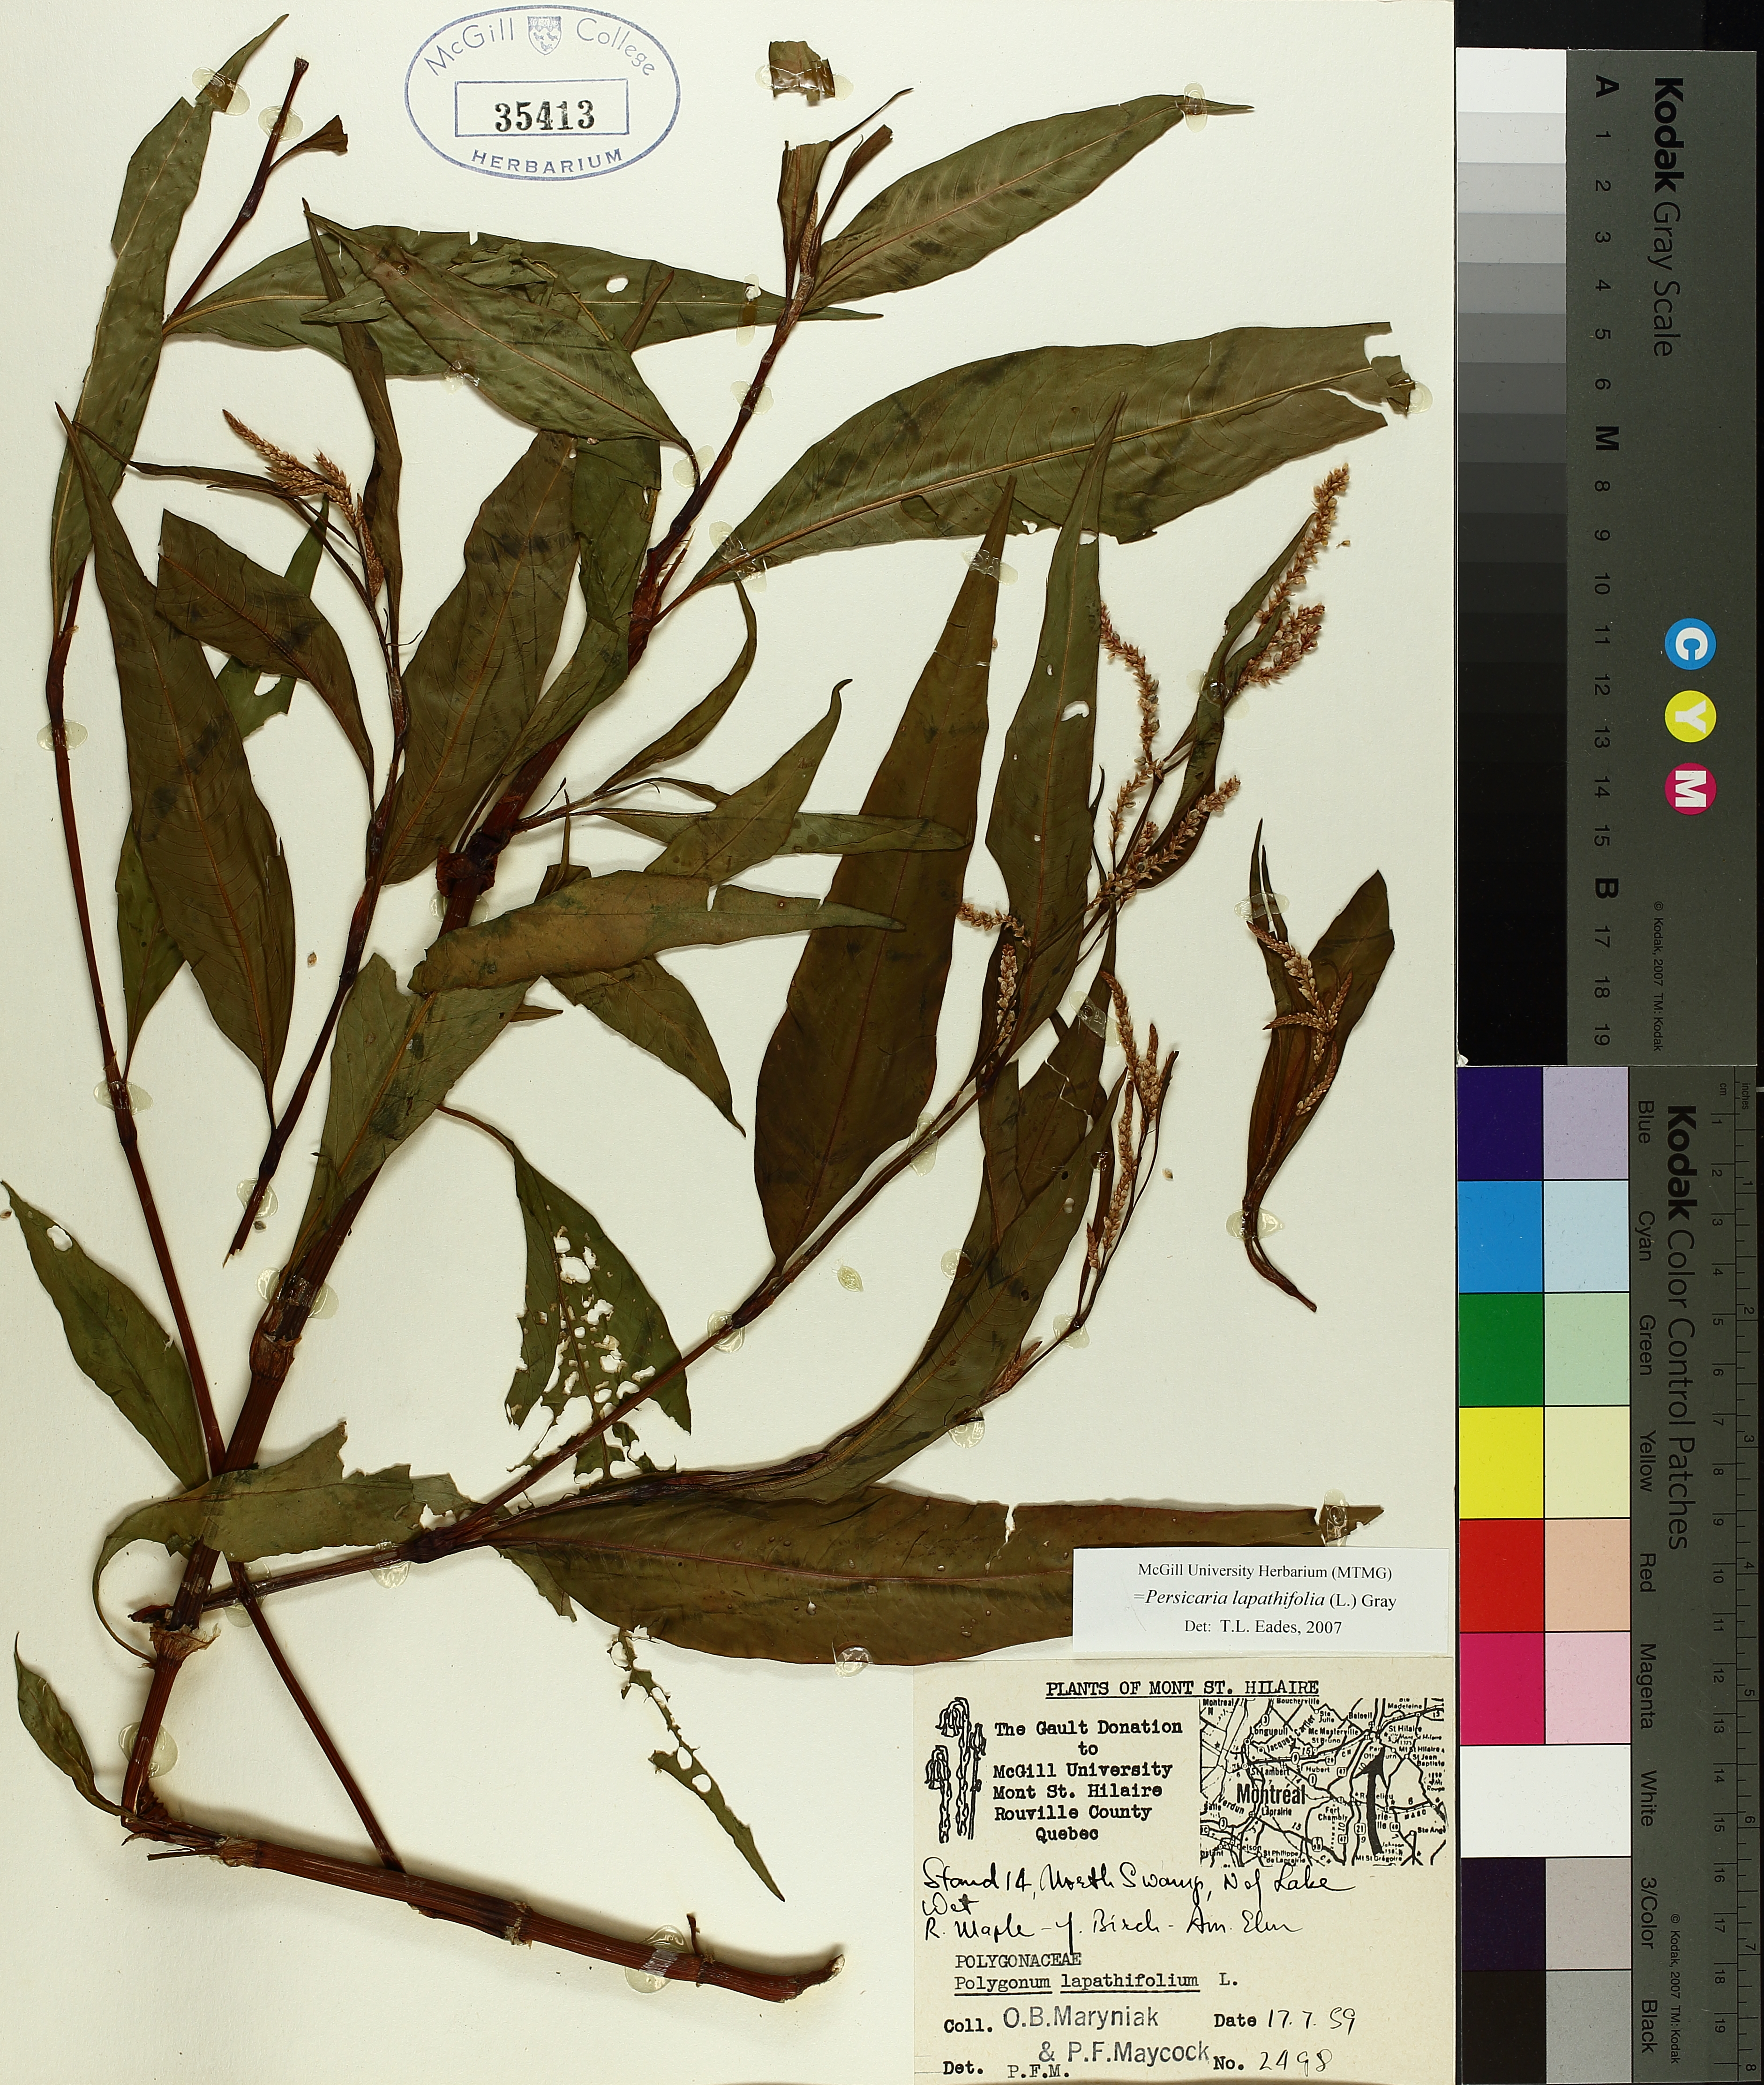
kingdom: Plantae
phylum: Tracheophyta
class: Magnoliopsida
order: Caryophyllales
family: Polygonaceae
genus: Persicaria
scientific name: Persicaria lapathifolia
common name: Curlytop knotweed
